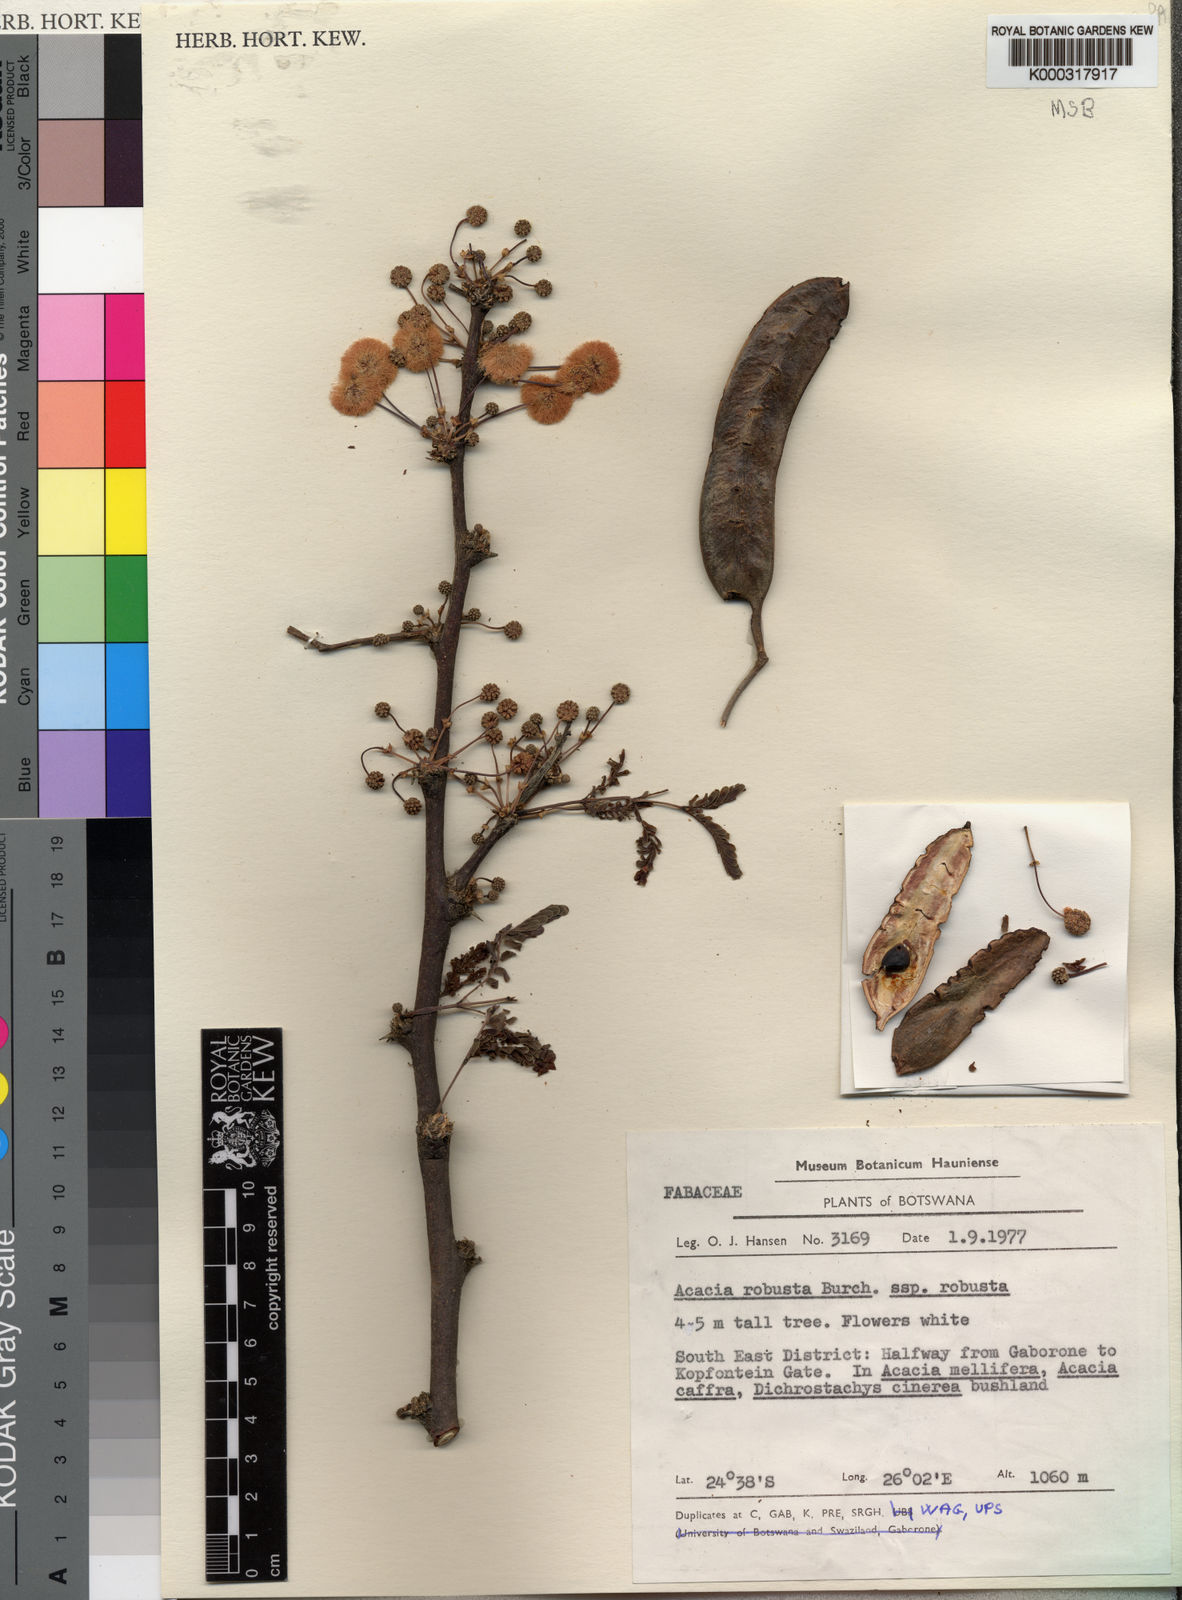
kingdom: Plantae
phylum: Tracheophyta
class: Magnoliopsida
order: Fabales
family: Fabaceae
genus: Vachellia
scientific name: Vachellia robusta
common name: Ankle thorn
